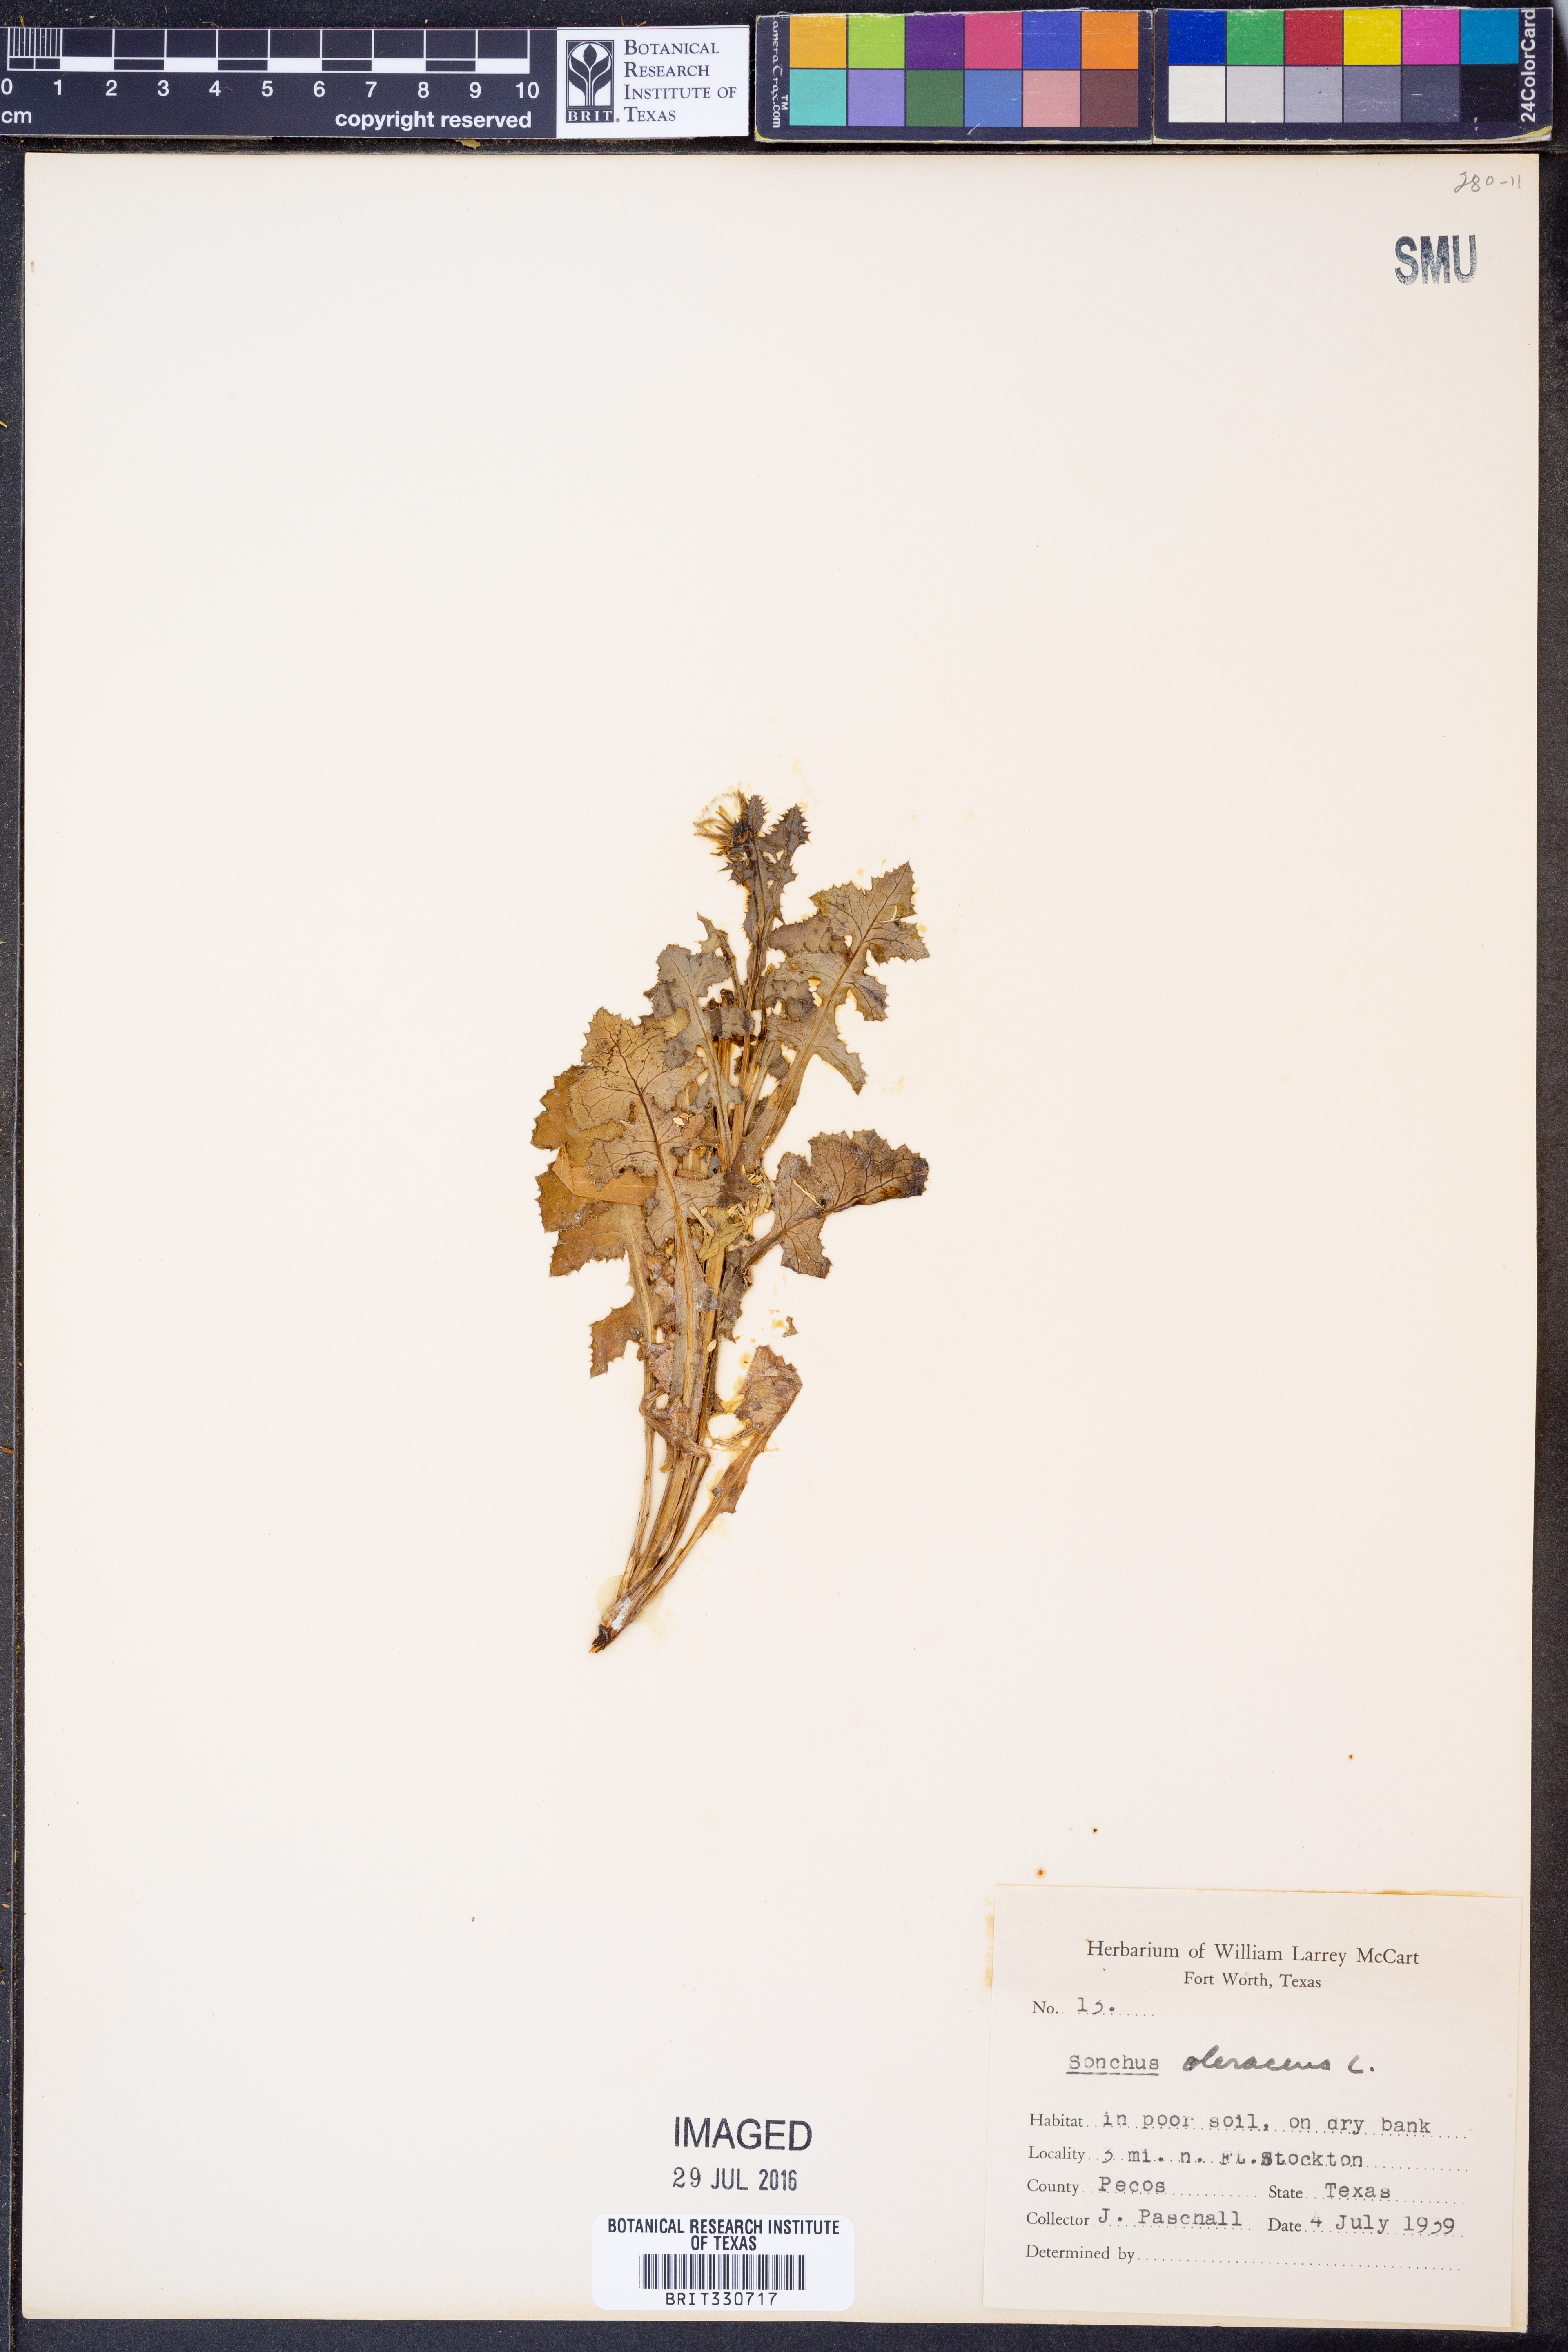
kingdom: Plantae
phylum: Tracheophyta
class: Magnoliopsida
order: Asterales
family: Asteraceae
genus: Sonchus
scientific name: Sonchus oleraceus
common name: Common sowthistle
